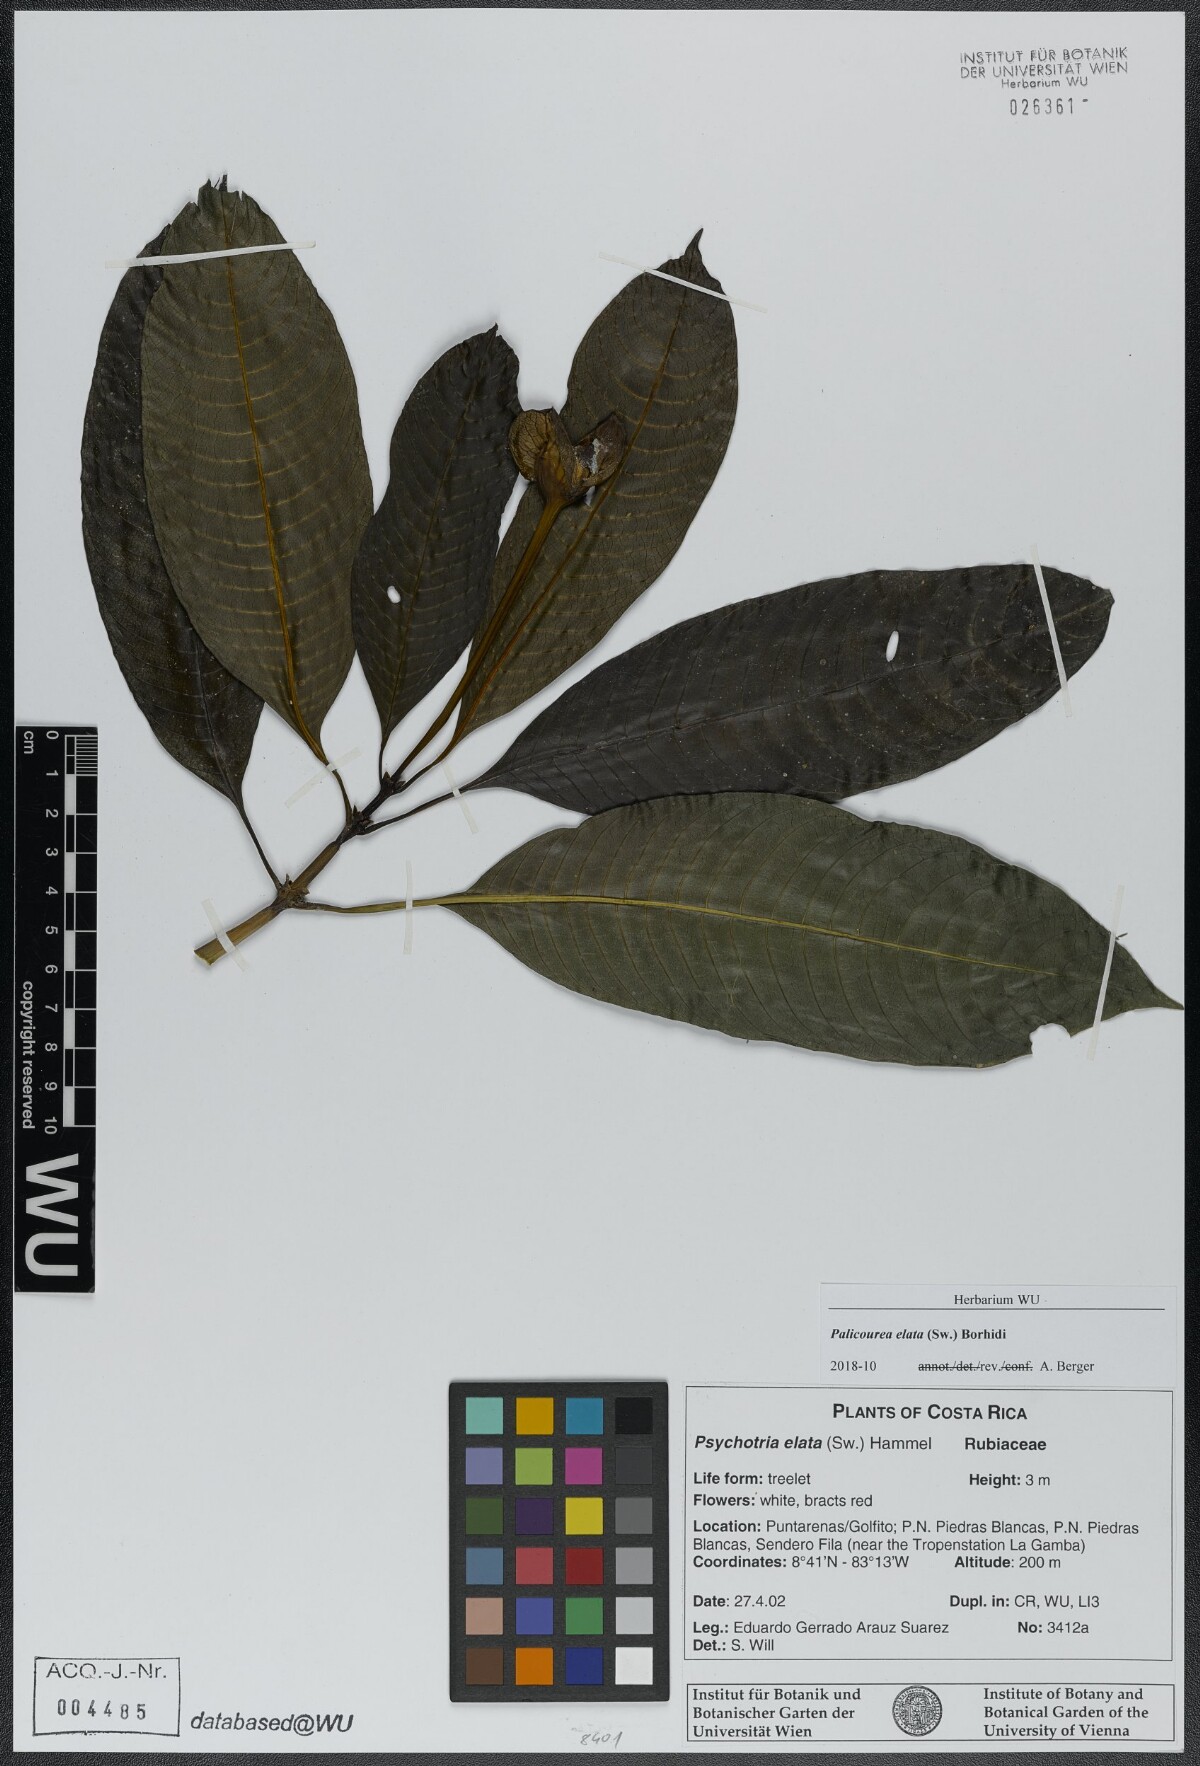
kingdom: Plantae
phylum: Tracheophyta
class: Magnoliopsida
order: Gentianales
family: Rubiaceae
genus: Palicourea
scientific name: Palicourea elata
